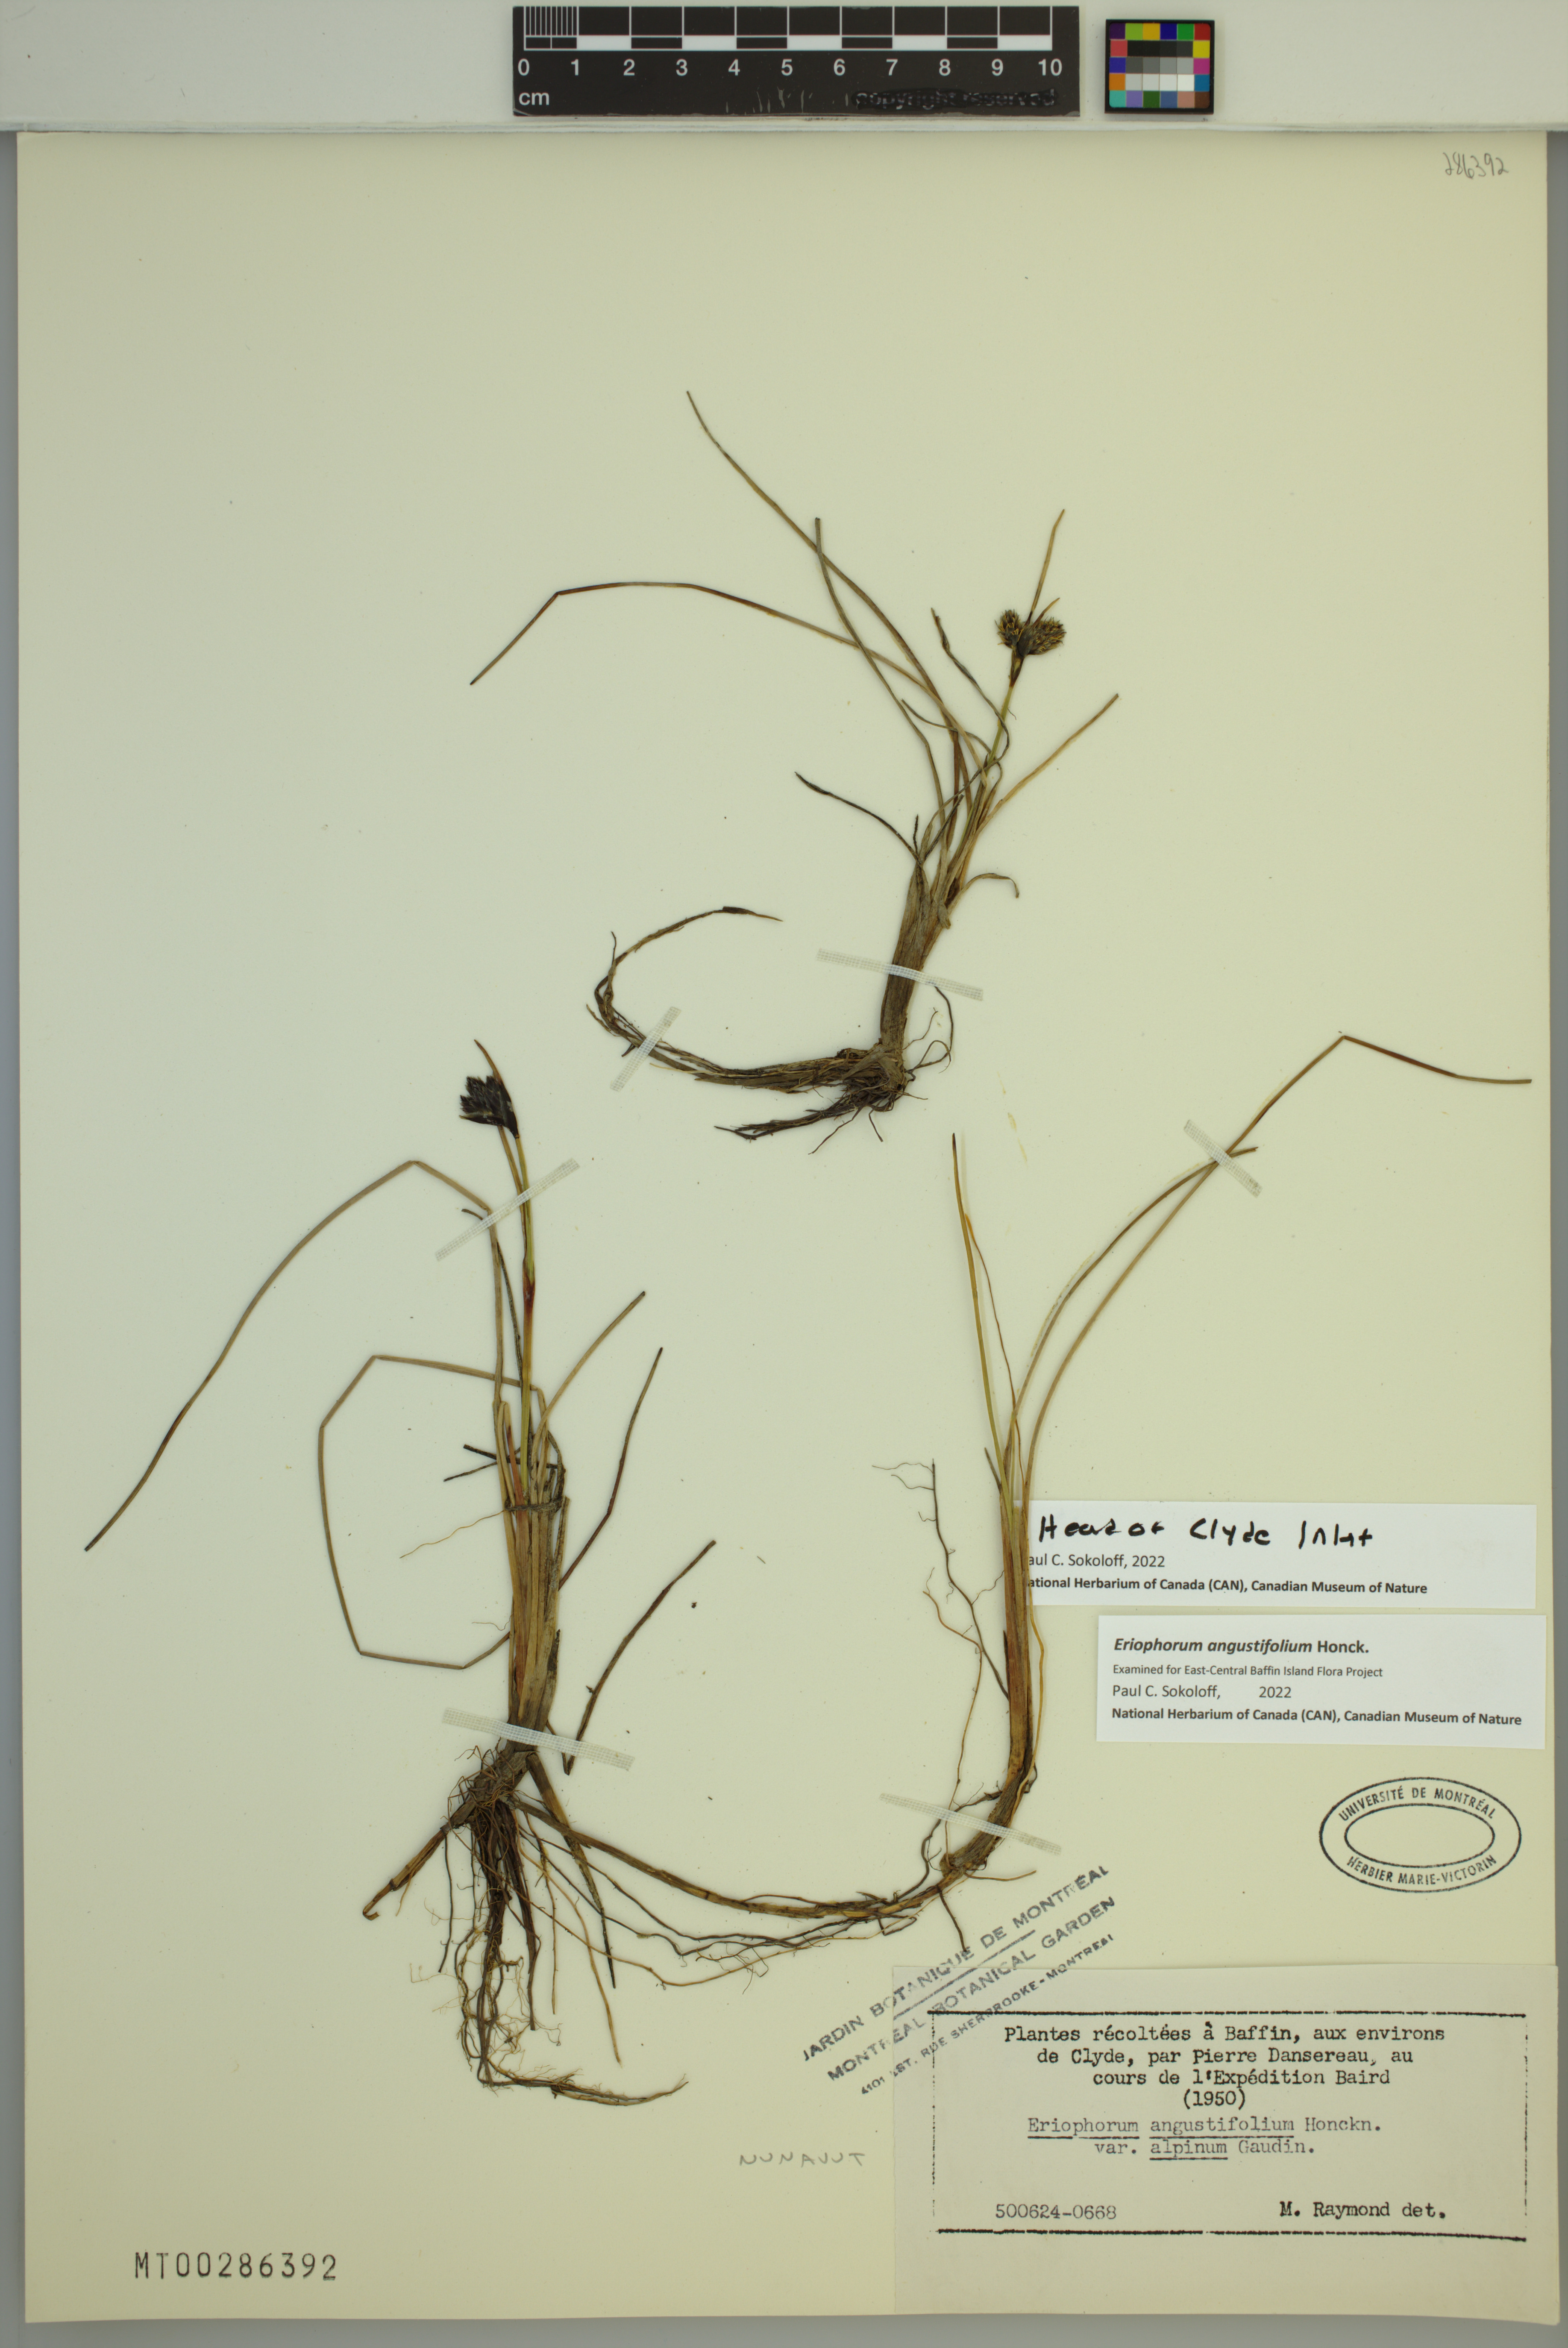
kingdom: Plantae
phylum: Tracheophyta
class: Liliopsida
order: Poales
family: Cyperaceae
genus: Eriophorum
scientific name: Eriophorum angustifolium
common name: Common cottongrass
